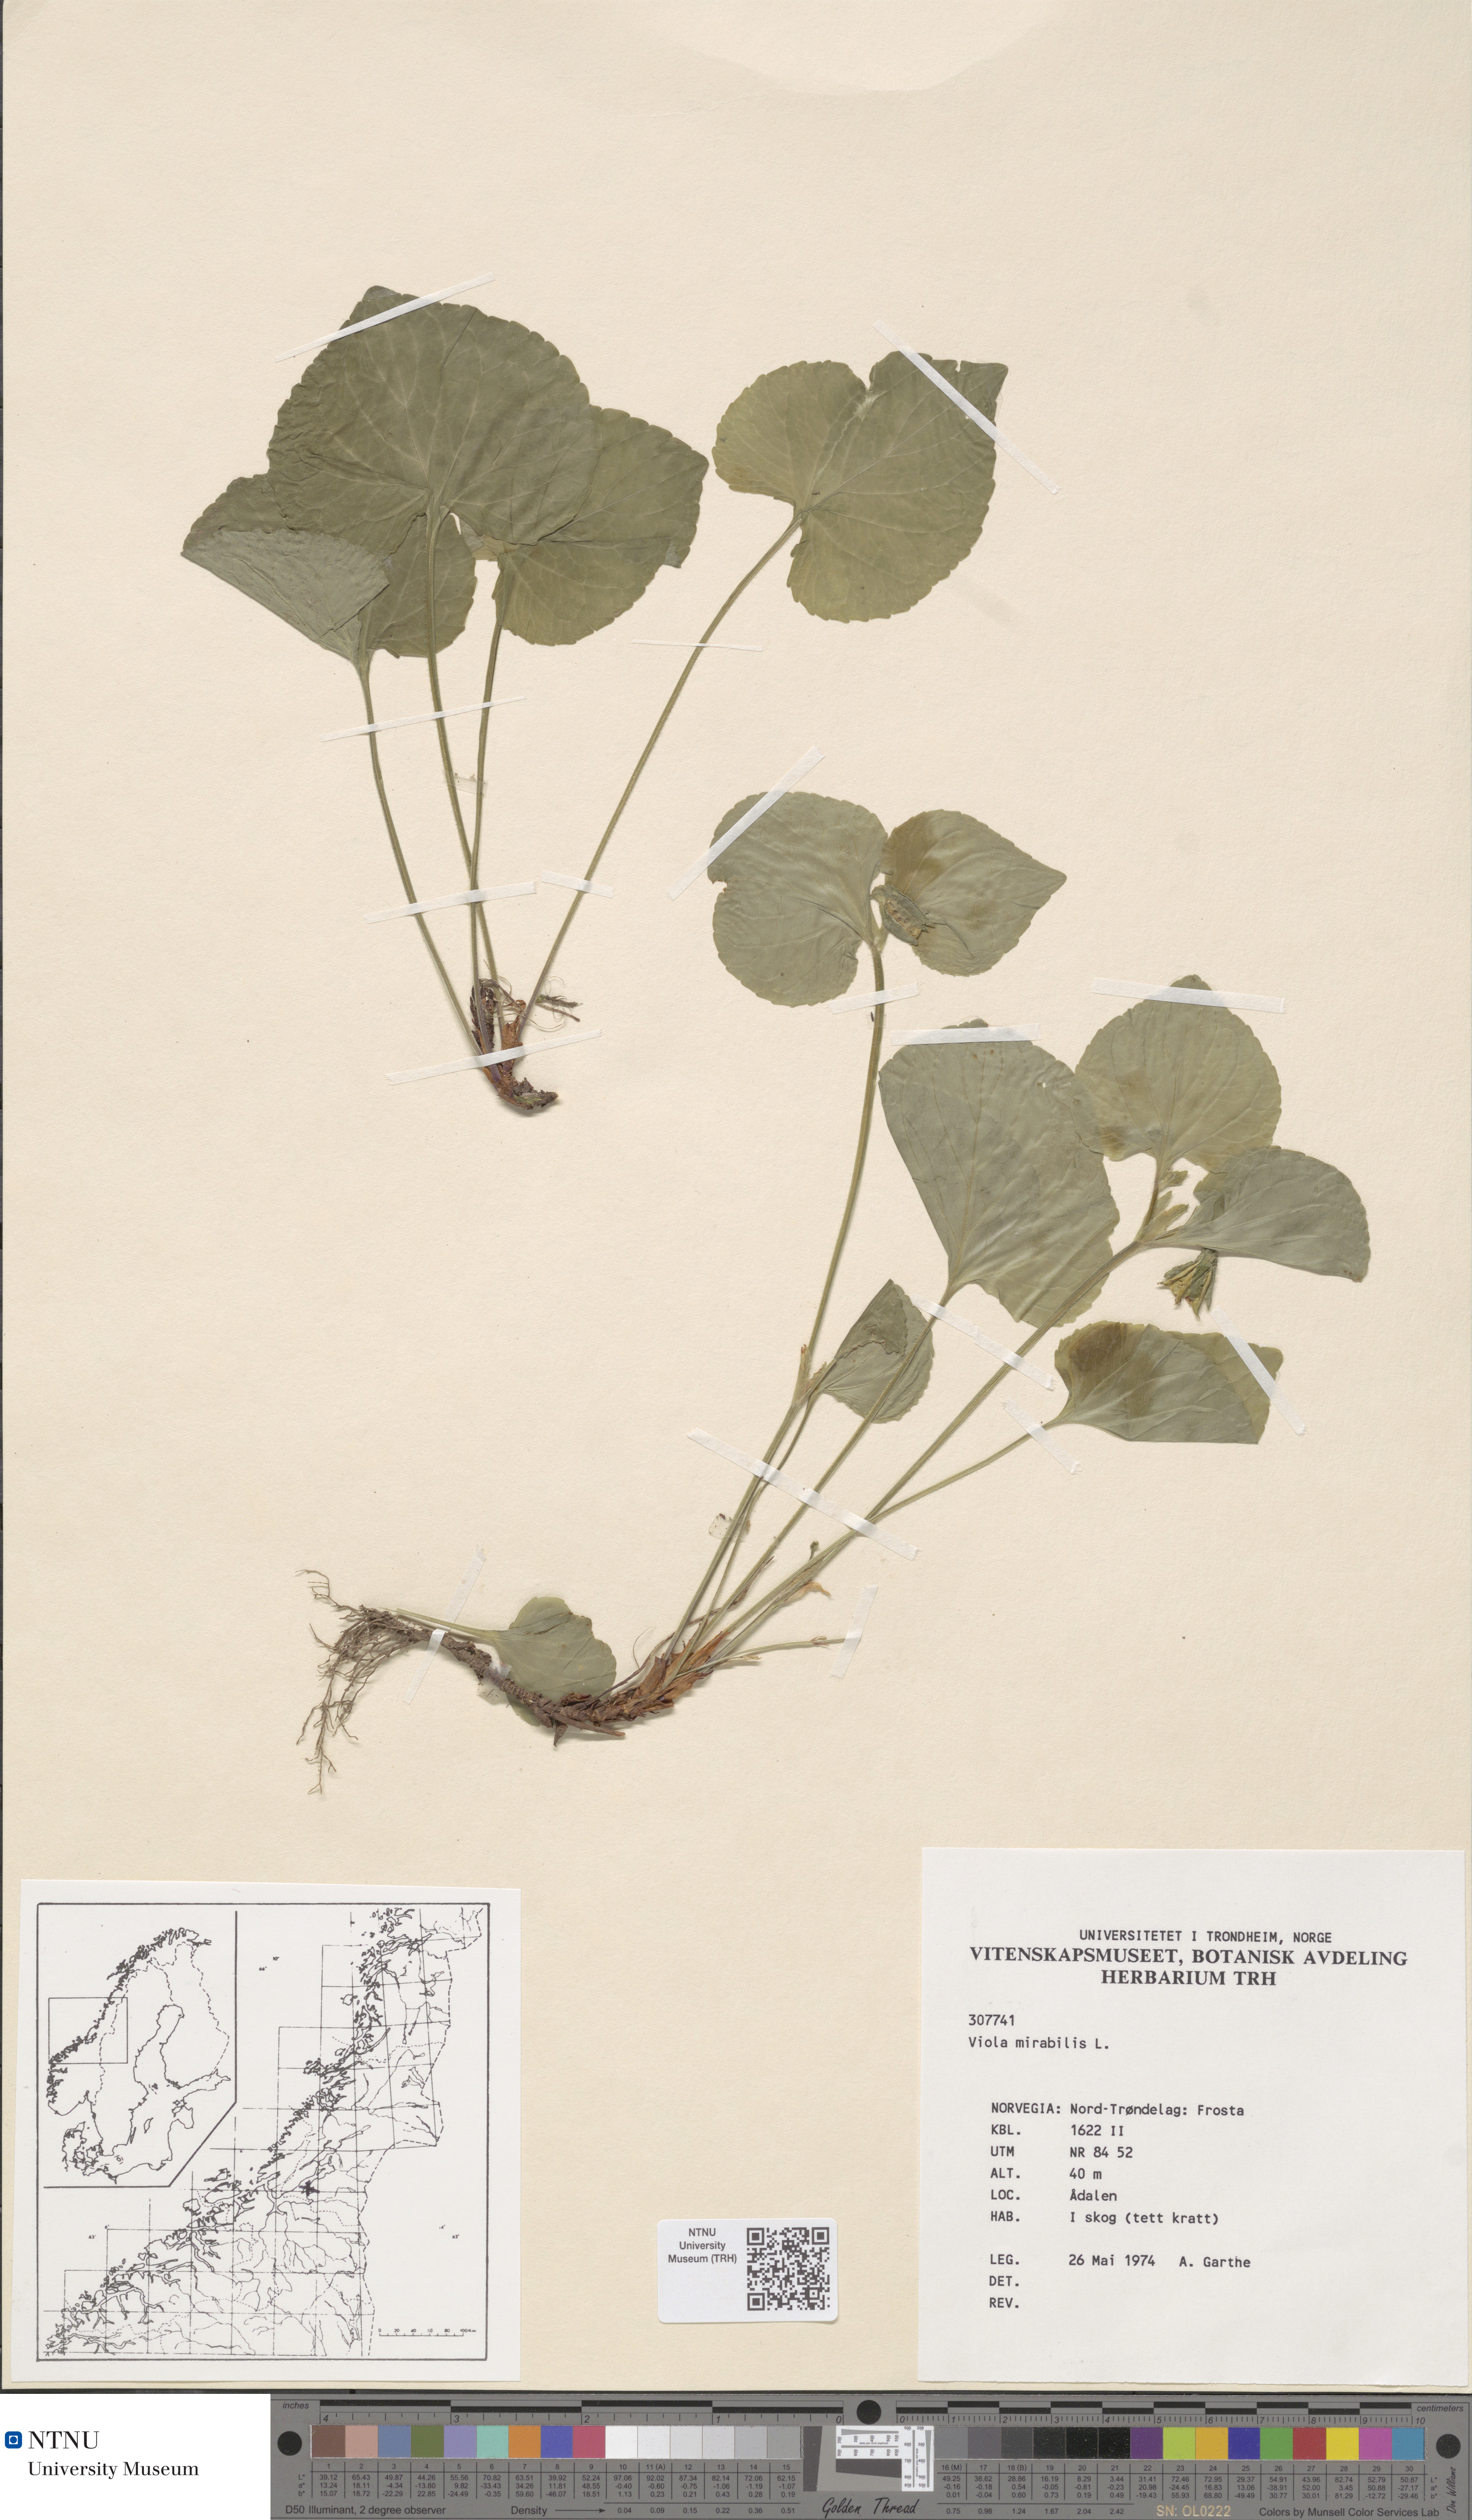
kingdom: Plantae
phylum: Tracheophyta
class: Magnoliopsida
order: Malpighiales
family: Violaceae
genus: Viola
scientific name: Viola mirabilis
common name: Wonder violet
